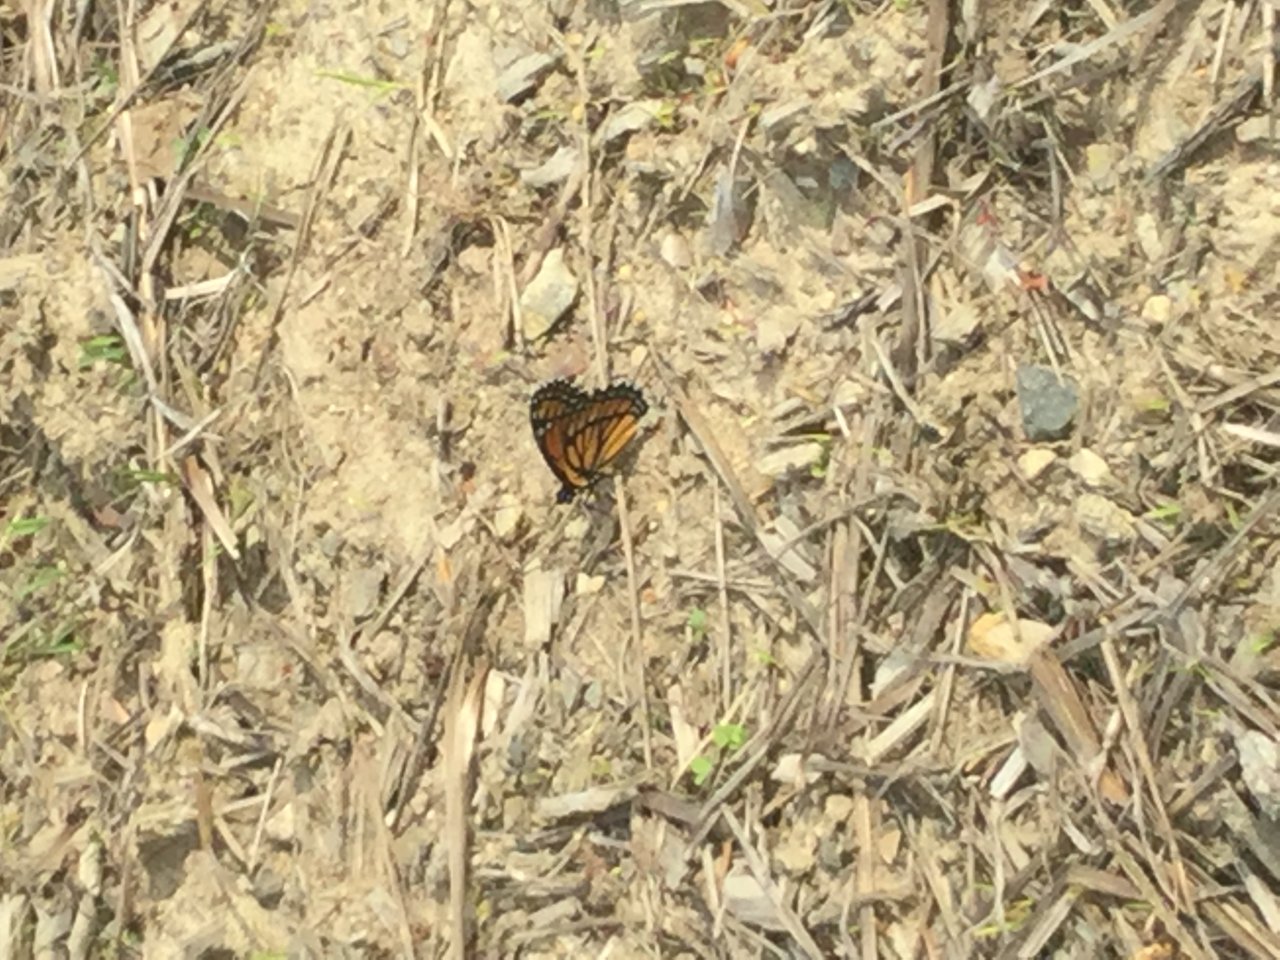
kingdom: Animalia
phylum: Arthropoda
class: Insecta
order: Lepidoptera
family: Nymphalidae
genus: Limenitis
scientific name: Limenitis archippus
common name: Viceroy
